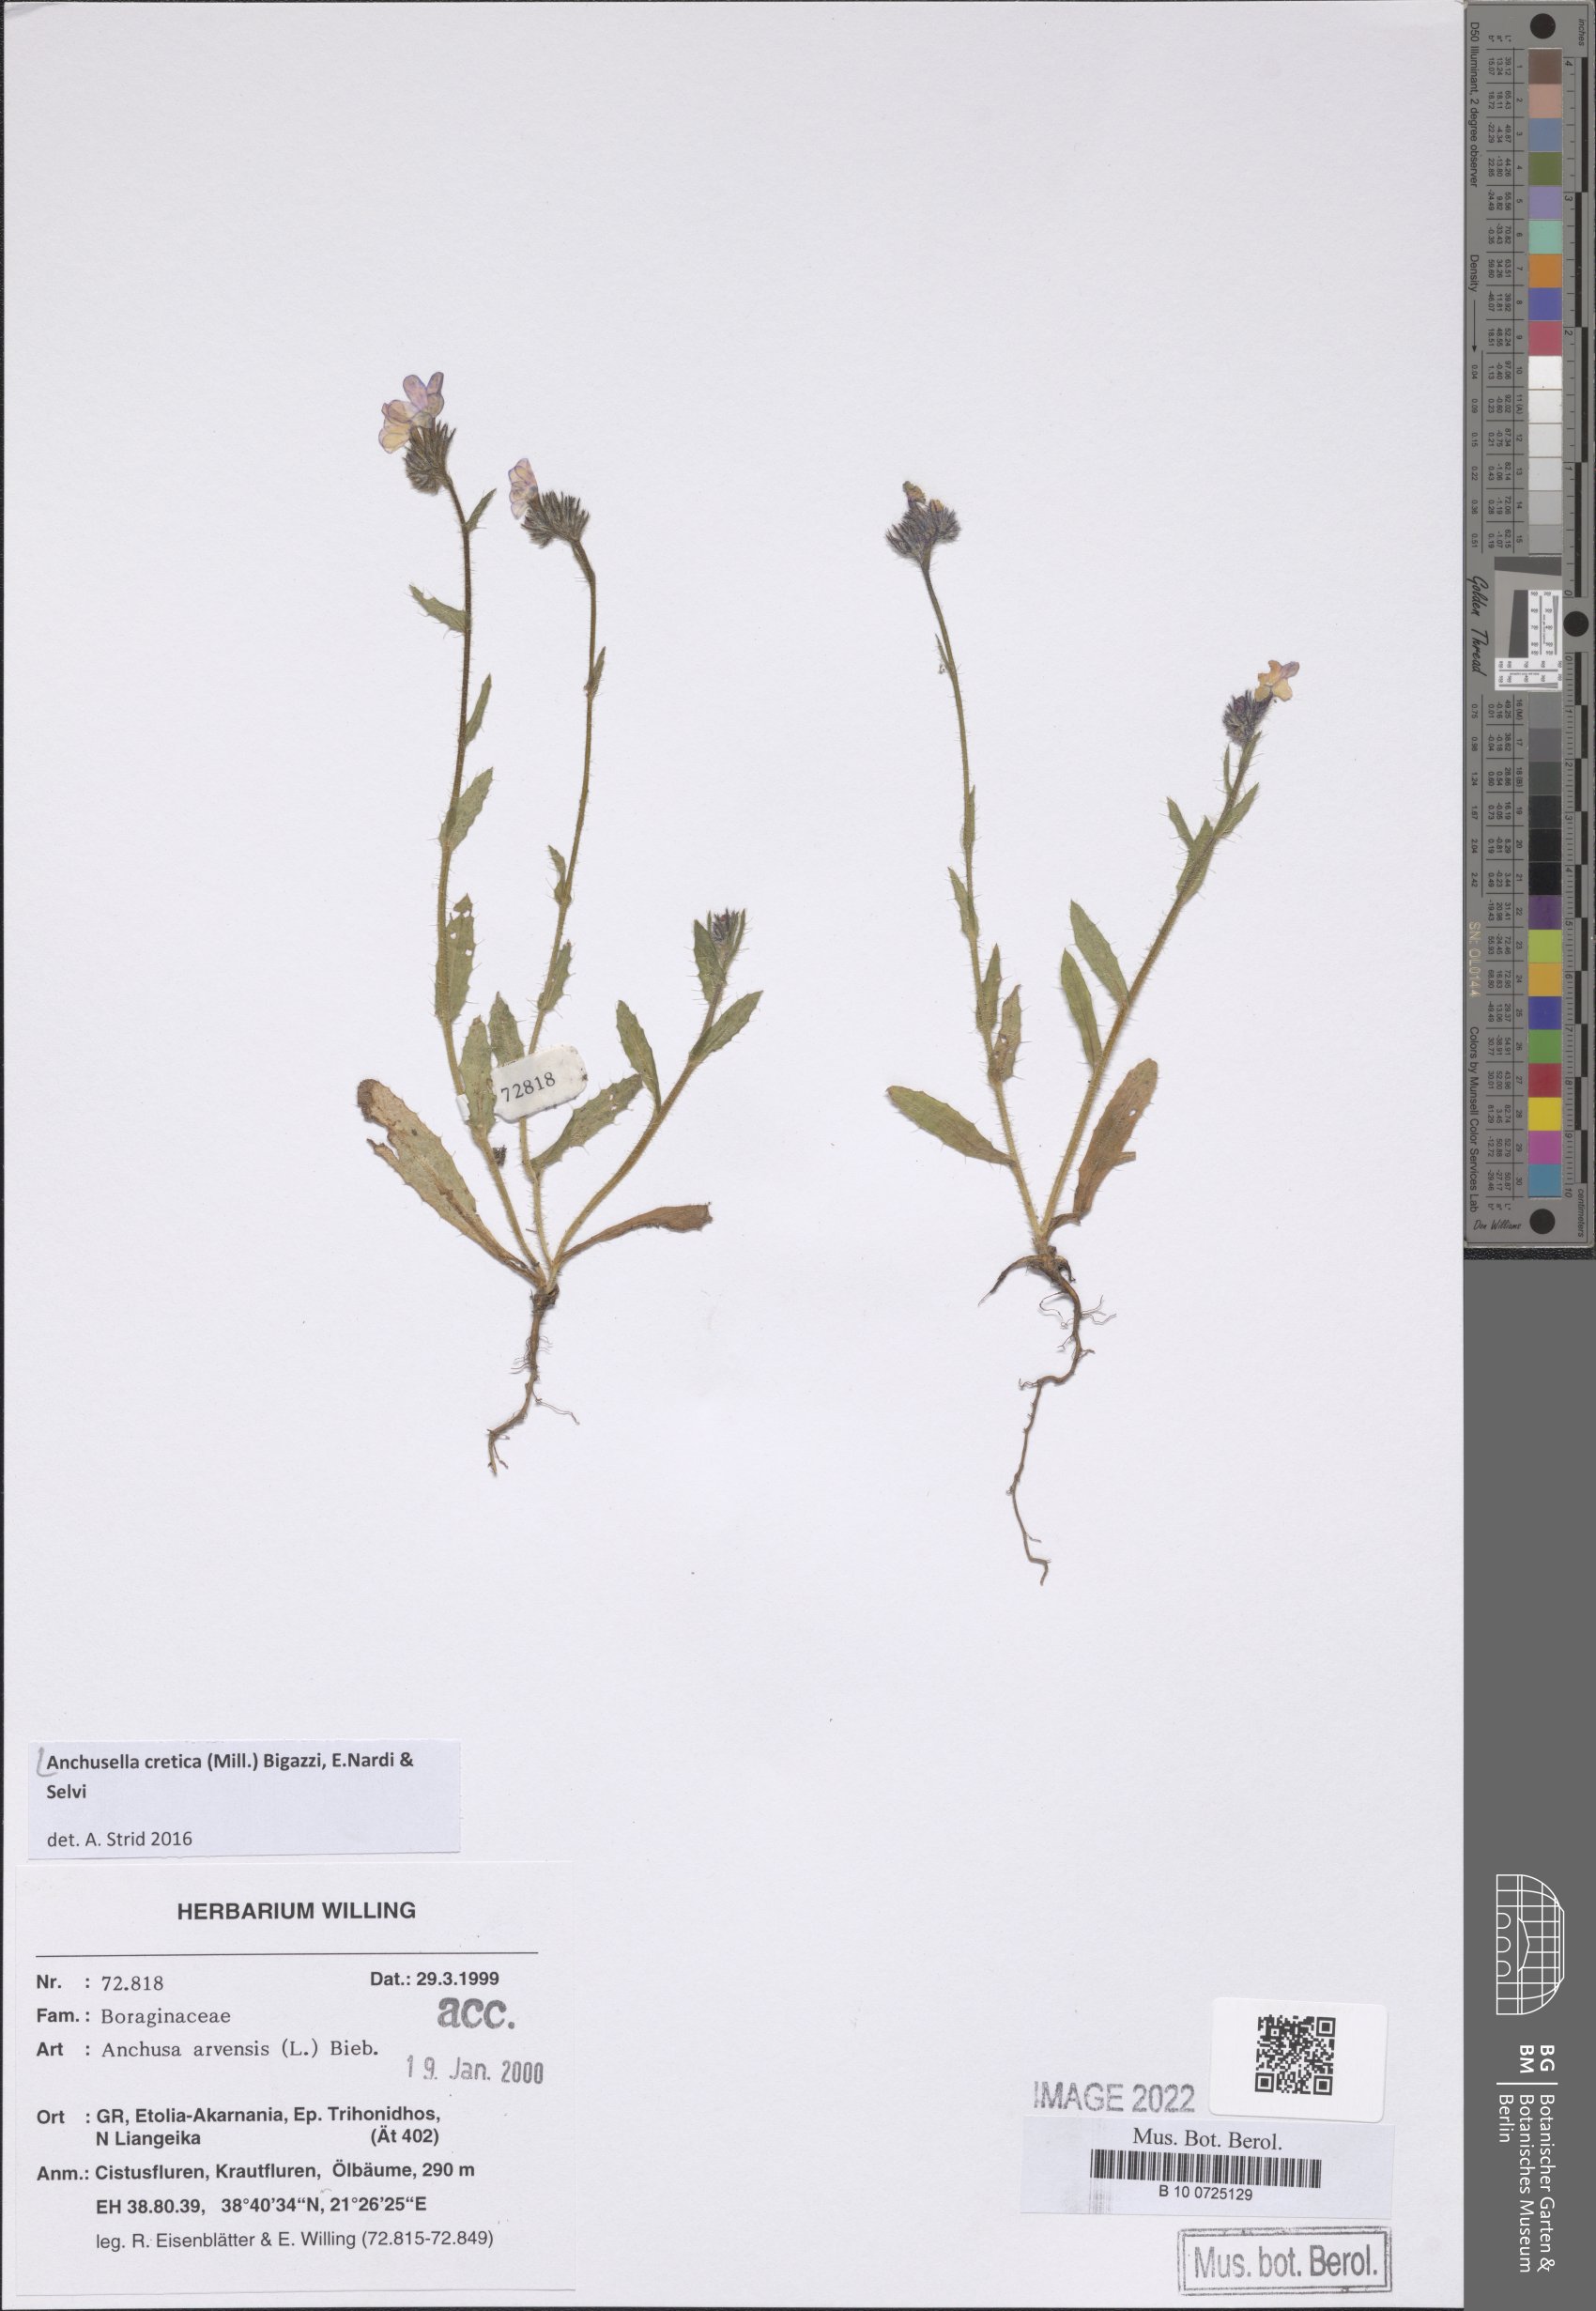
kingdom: Plantae
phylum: Tracheophyta
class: Magnoliopsida
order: Boraginales
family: Boraginaceae
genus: Anchusella
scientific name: Anchusella cretica
